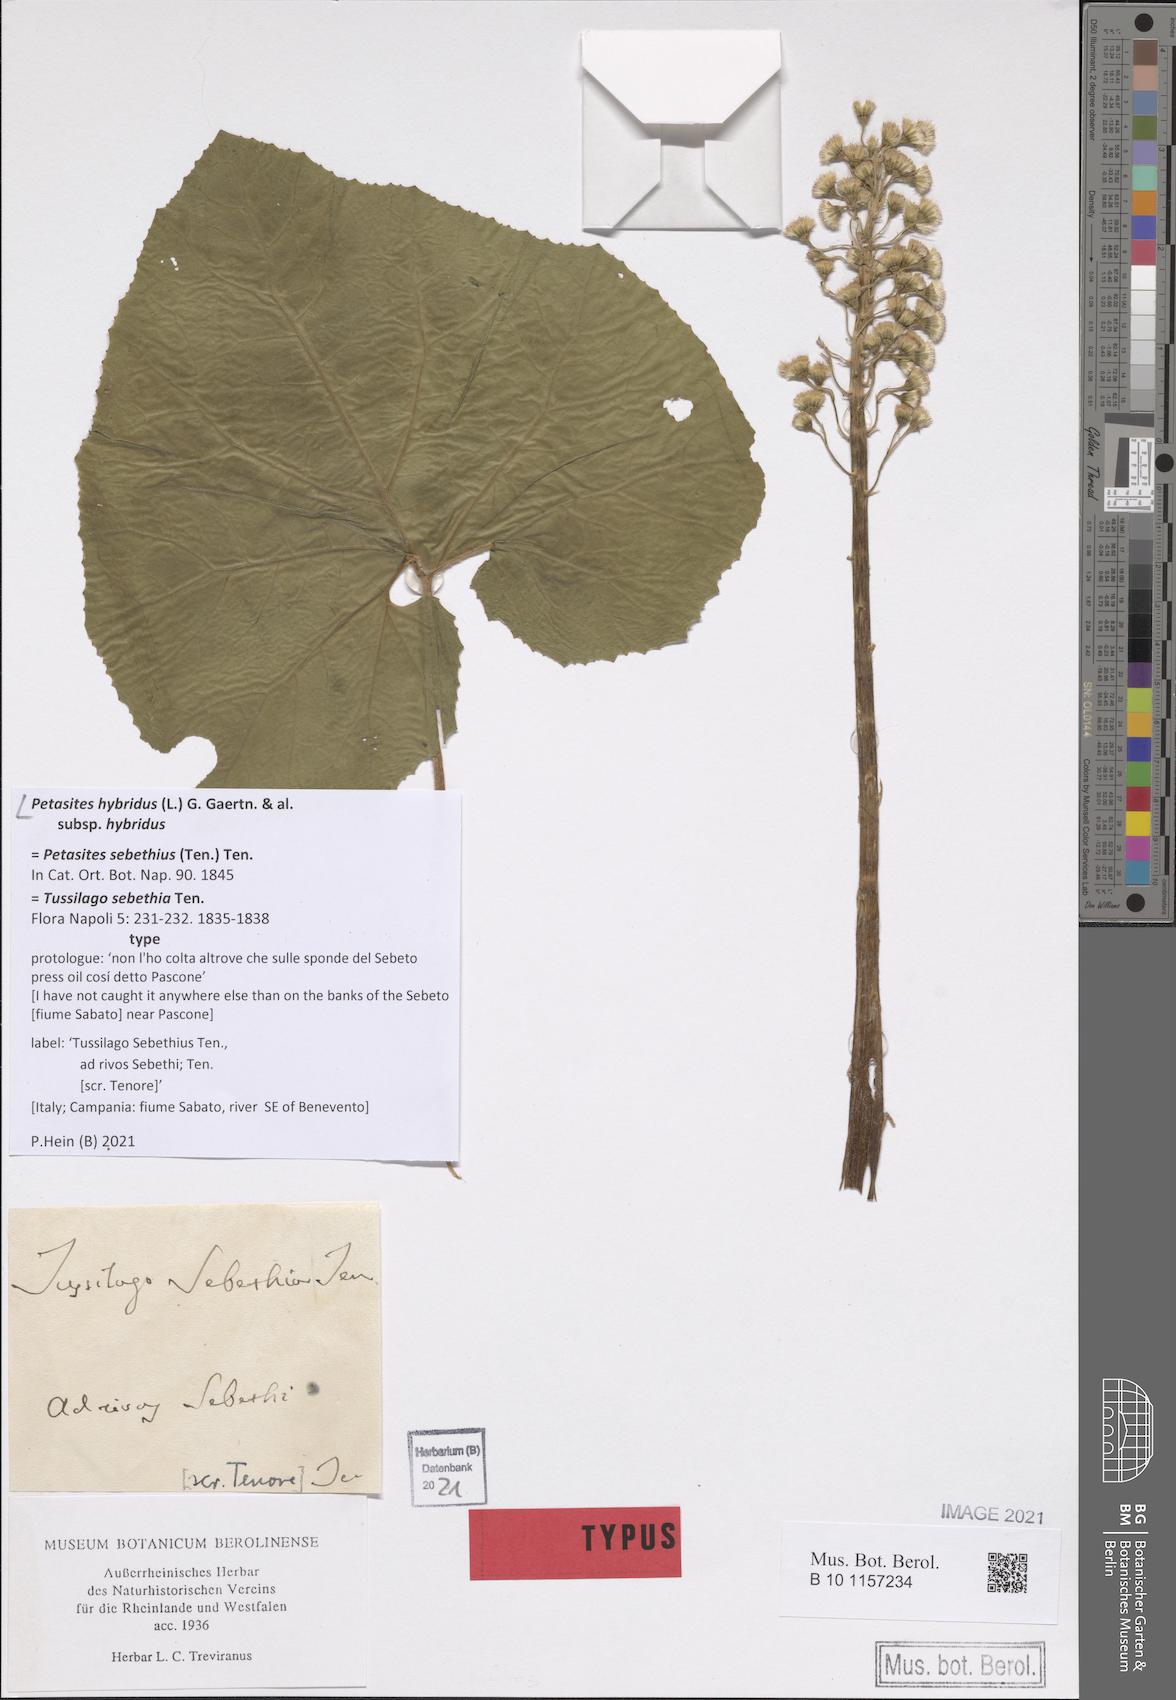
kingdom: Plantae
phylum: Tracheophyta
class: Magnoliopsida
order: Asterales
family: Asteraceae
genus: Petasites
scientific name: Petasites hybridus
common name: Butterbur
